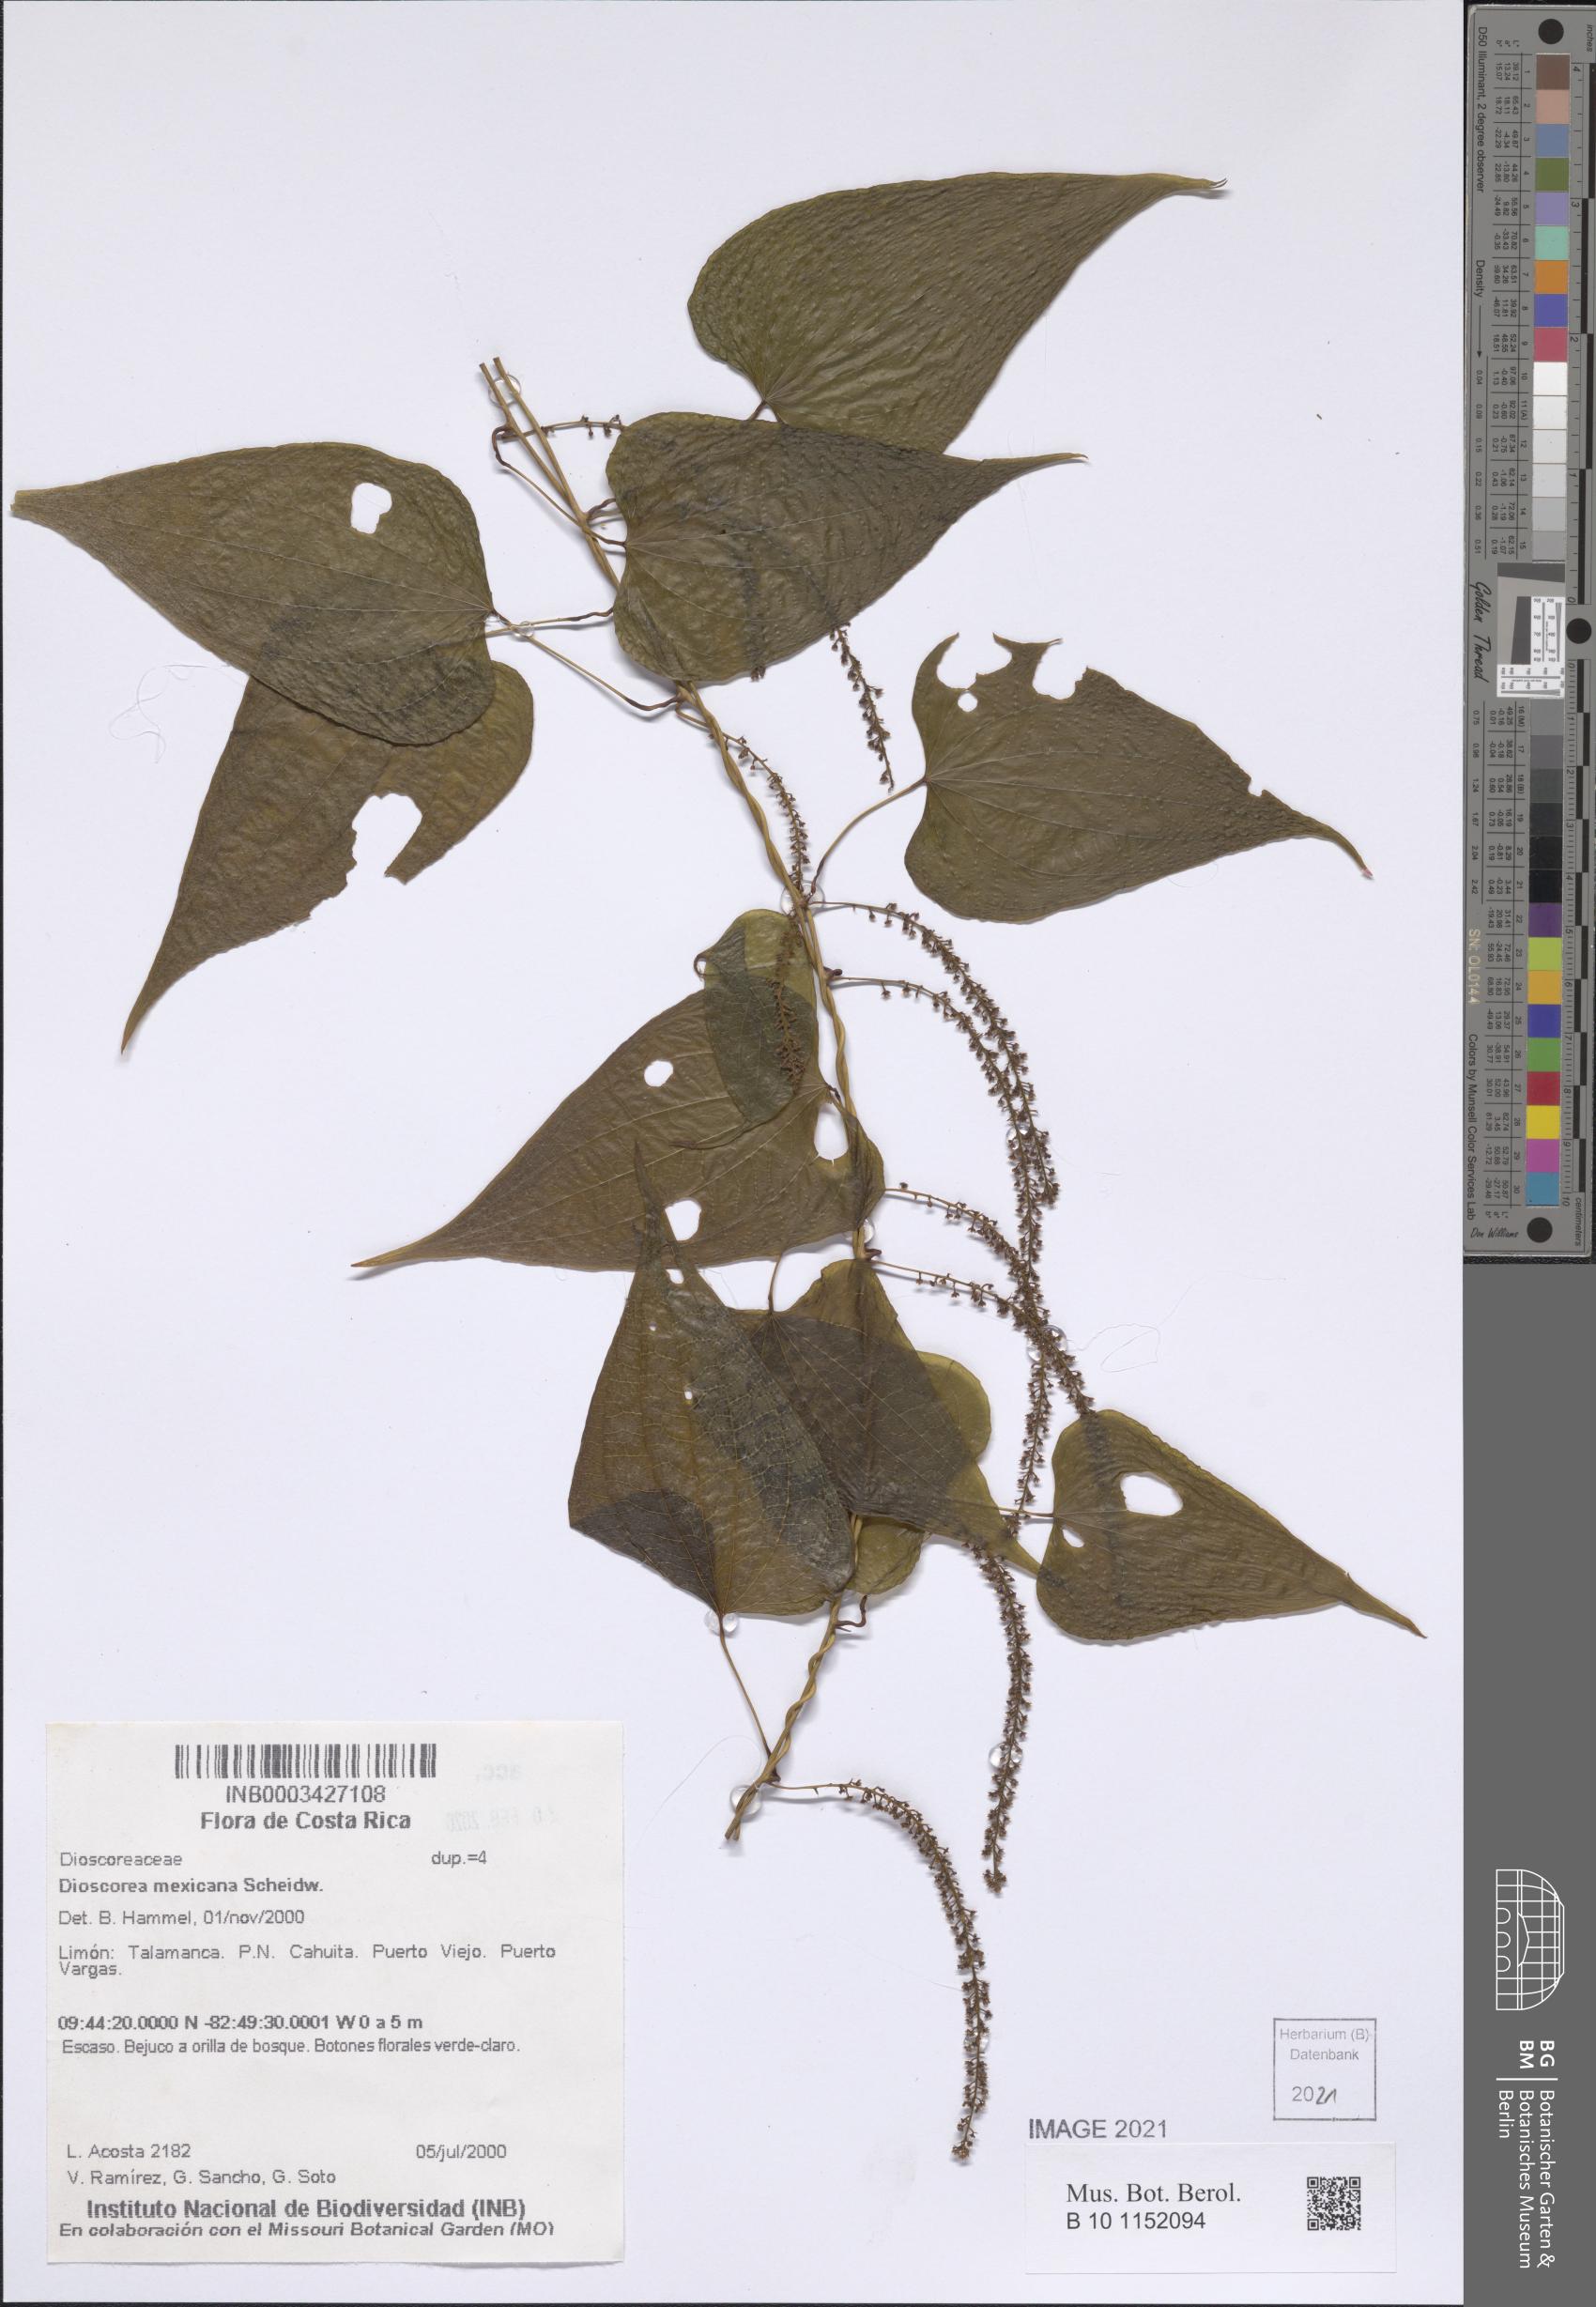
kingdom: Plantae
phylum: Tracheophyta
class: Liliopsida
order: Dioscoreales
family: Dioscoreaceae
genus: Dioscorea
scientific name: Dioscorea mexicana
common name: Mexican yam
